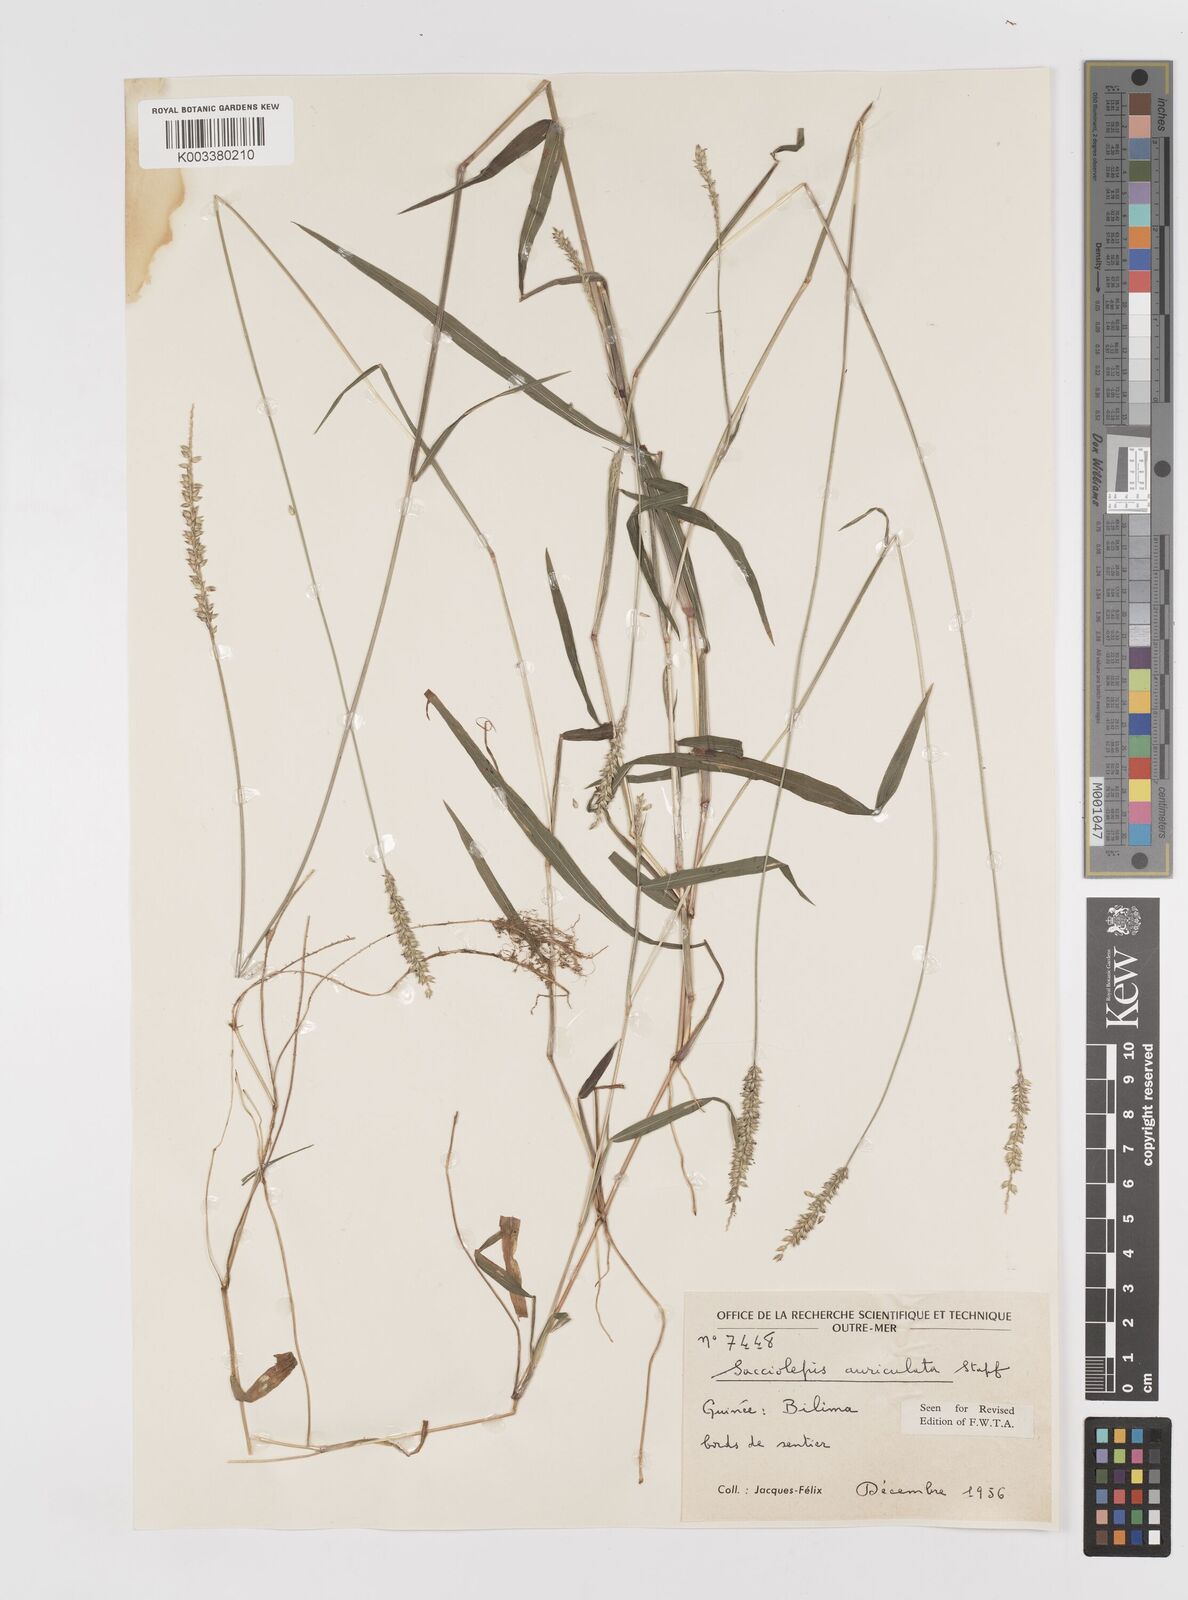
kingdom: Plantae
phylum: Tracheophyta
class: Liliopsida
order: Poales
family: Poaceae
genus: Sacciolepis
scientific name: Sacciolepis indica
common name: Glenwoodgrass
